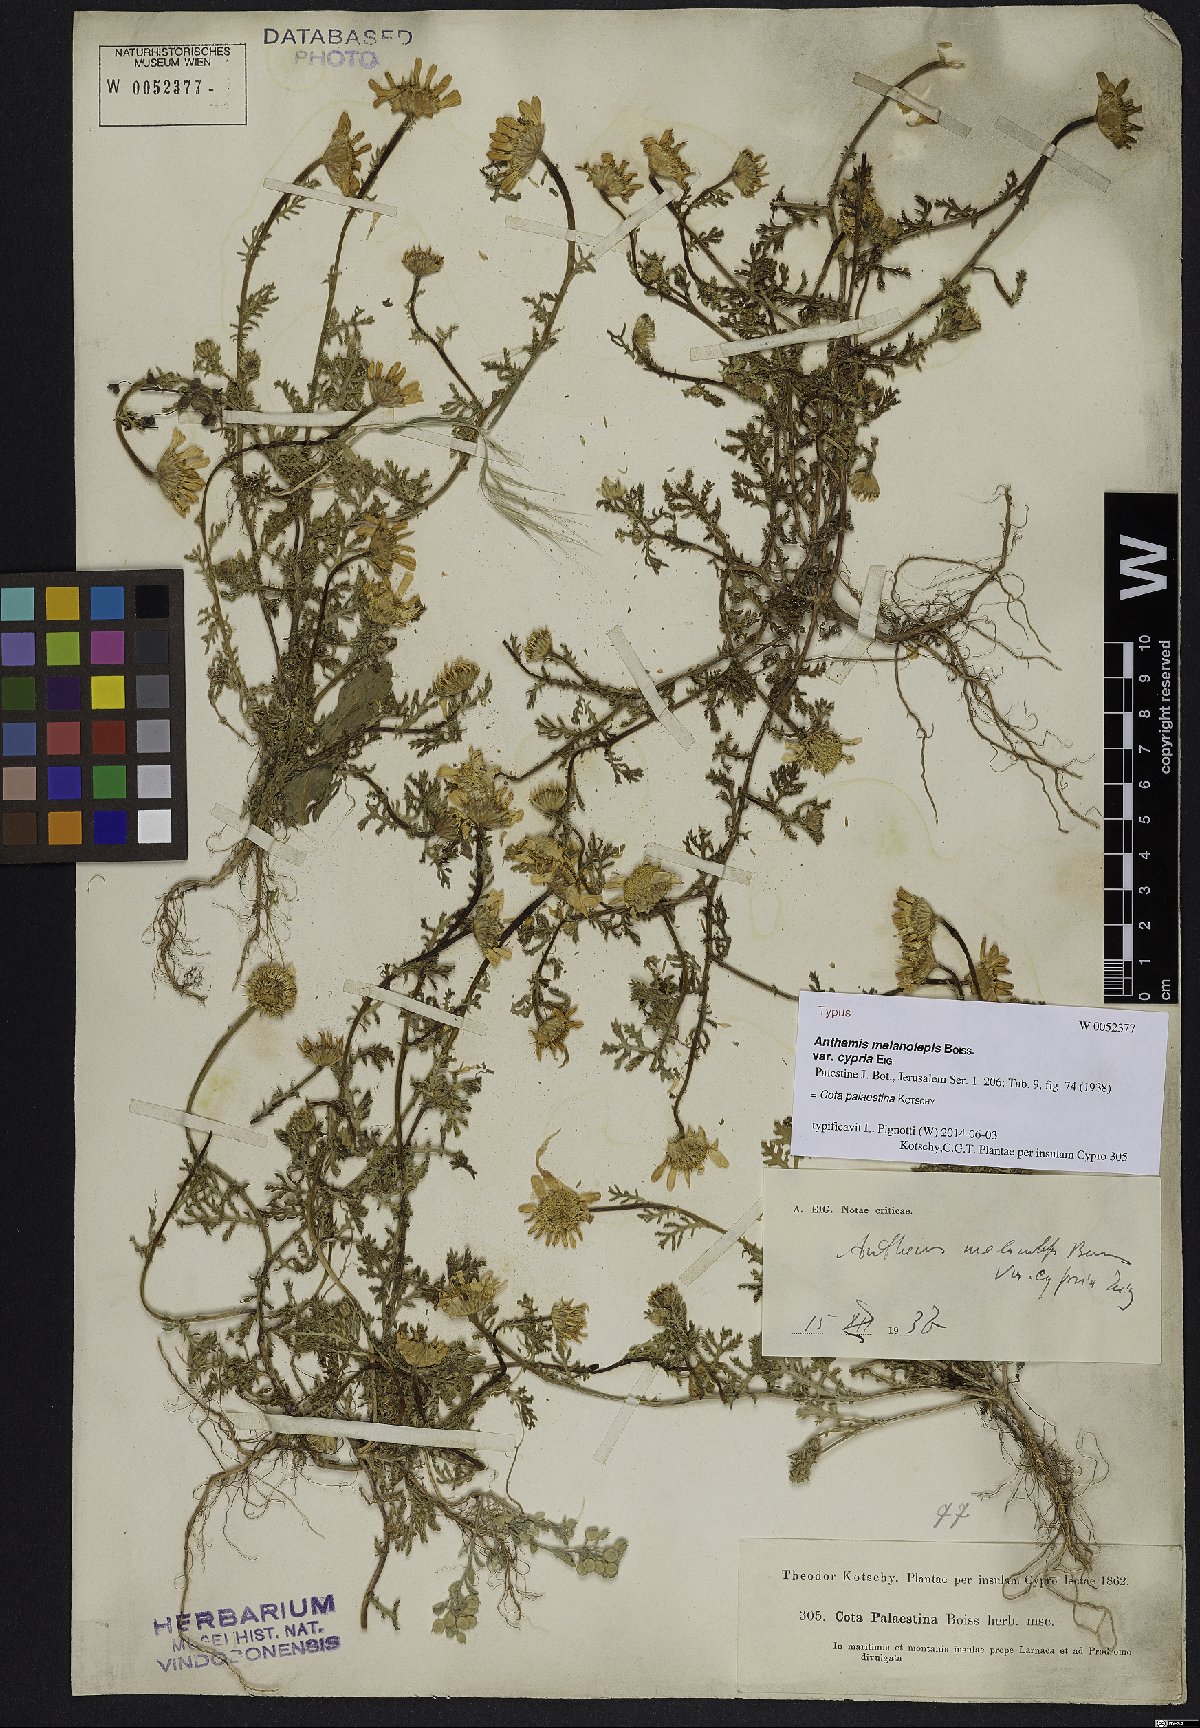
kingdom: Plantae
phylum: Tracheophyta
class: Magnoliopsida
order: Asterales
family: Asteraceae
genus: Cota
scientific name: Cota palaestina
